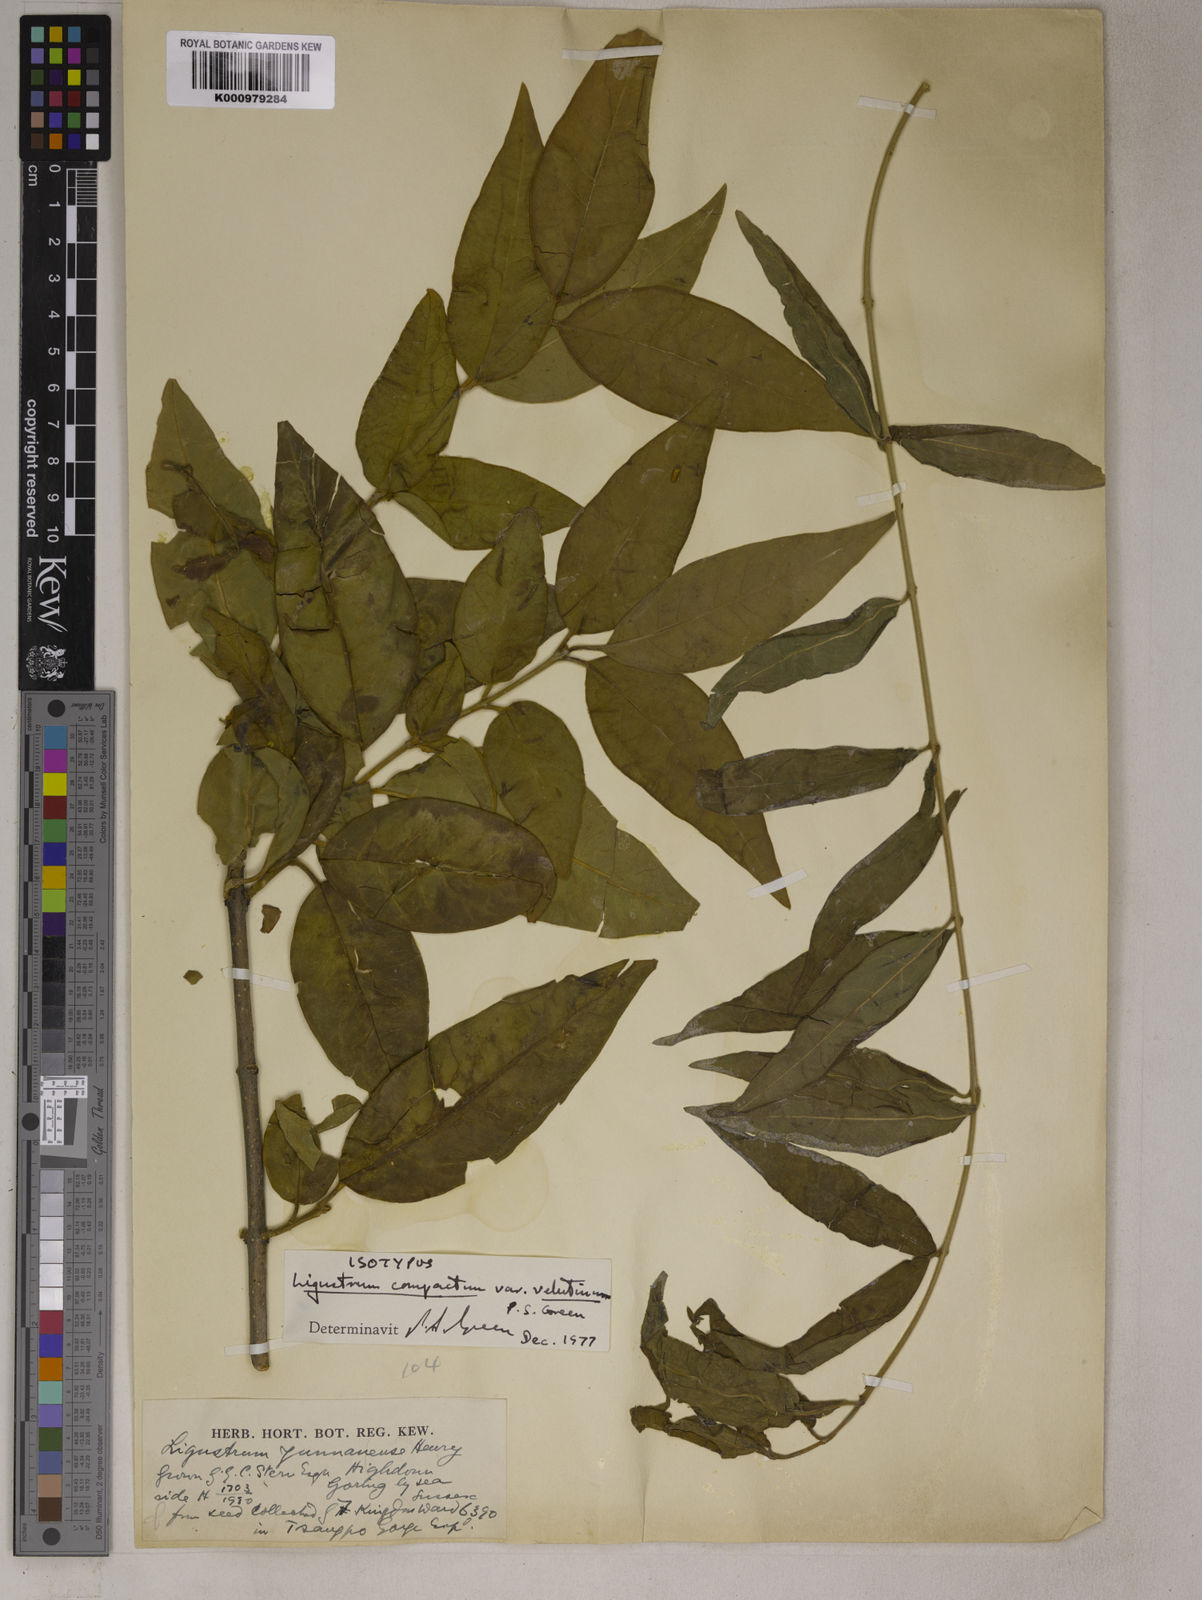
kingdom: Plantae
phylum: Tracheophyta
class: Magnoliopsida
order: Lamiales
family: Oleaceae
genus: Ligustrum
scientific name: Ligustrum compactum
